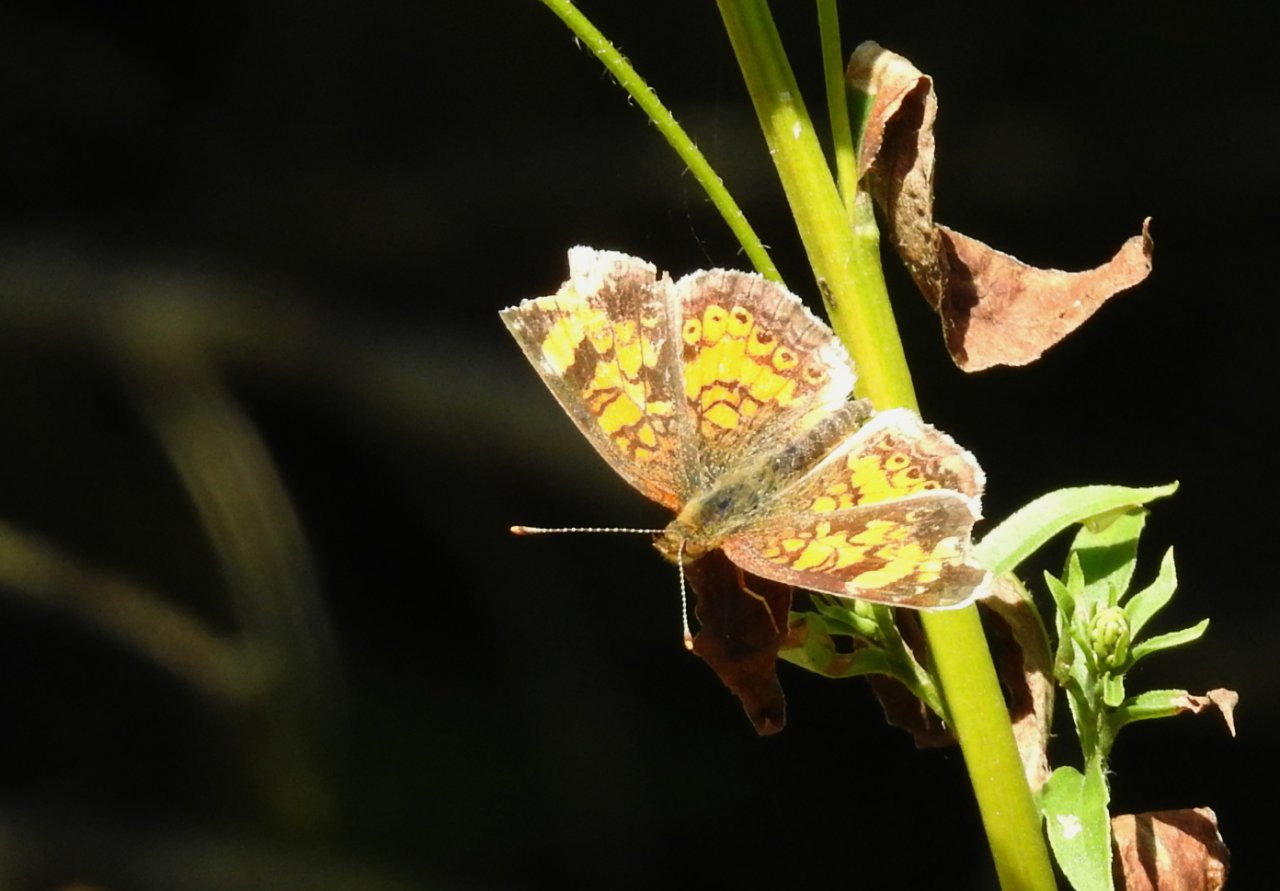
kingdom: Animalia
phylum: Arthropoda
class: Insecta
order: Lepidoptera
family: Nymphalidae
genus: Phyciodes
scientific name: Phyciodes tharos
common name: Northern Crescent
